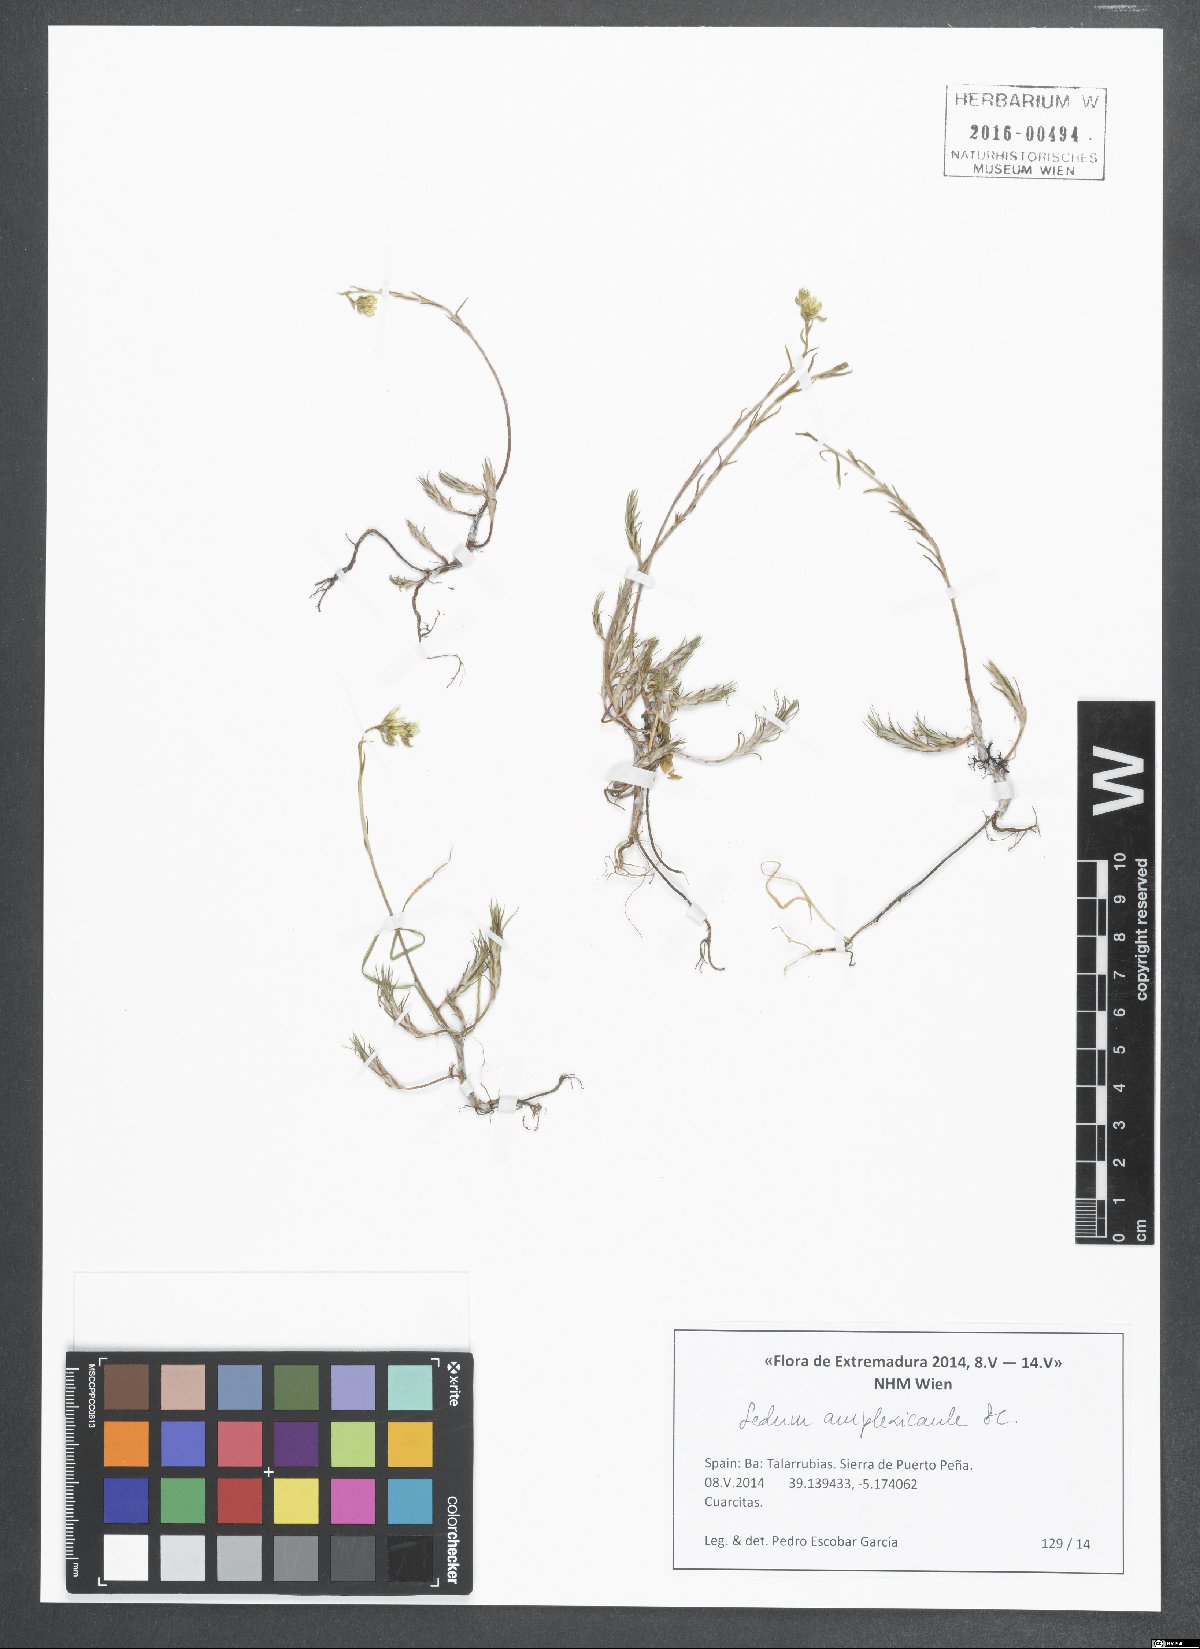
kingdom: Plantae
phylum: Tracheophyta
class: Magnoliopsida
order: Saxifragales
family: Crassulaceae
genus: Petrosedum
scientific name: Petrosedum amplexicaule
